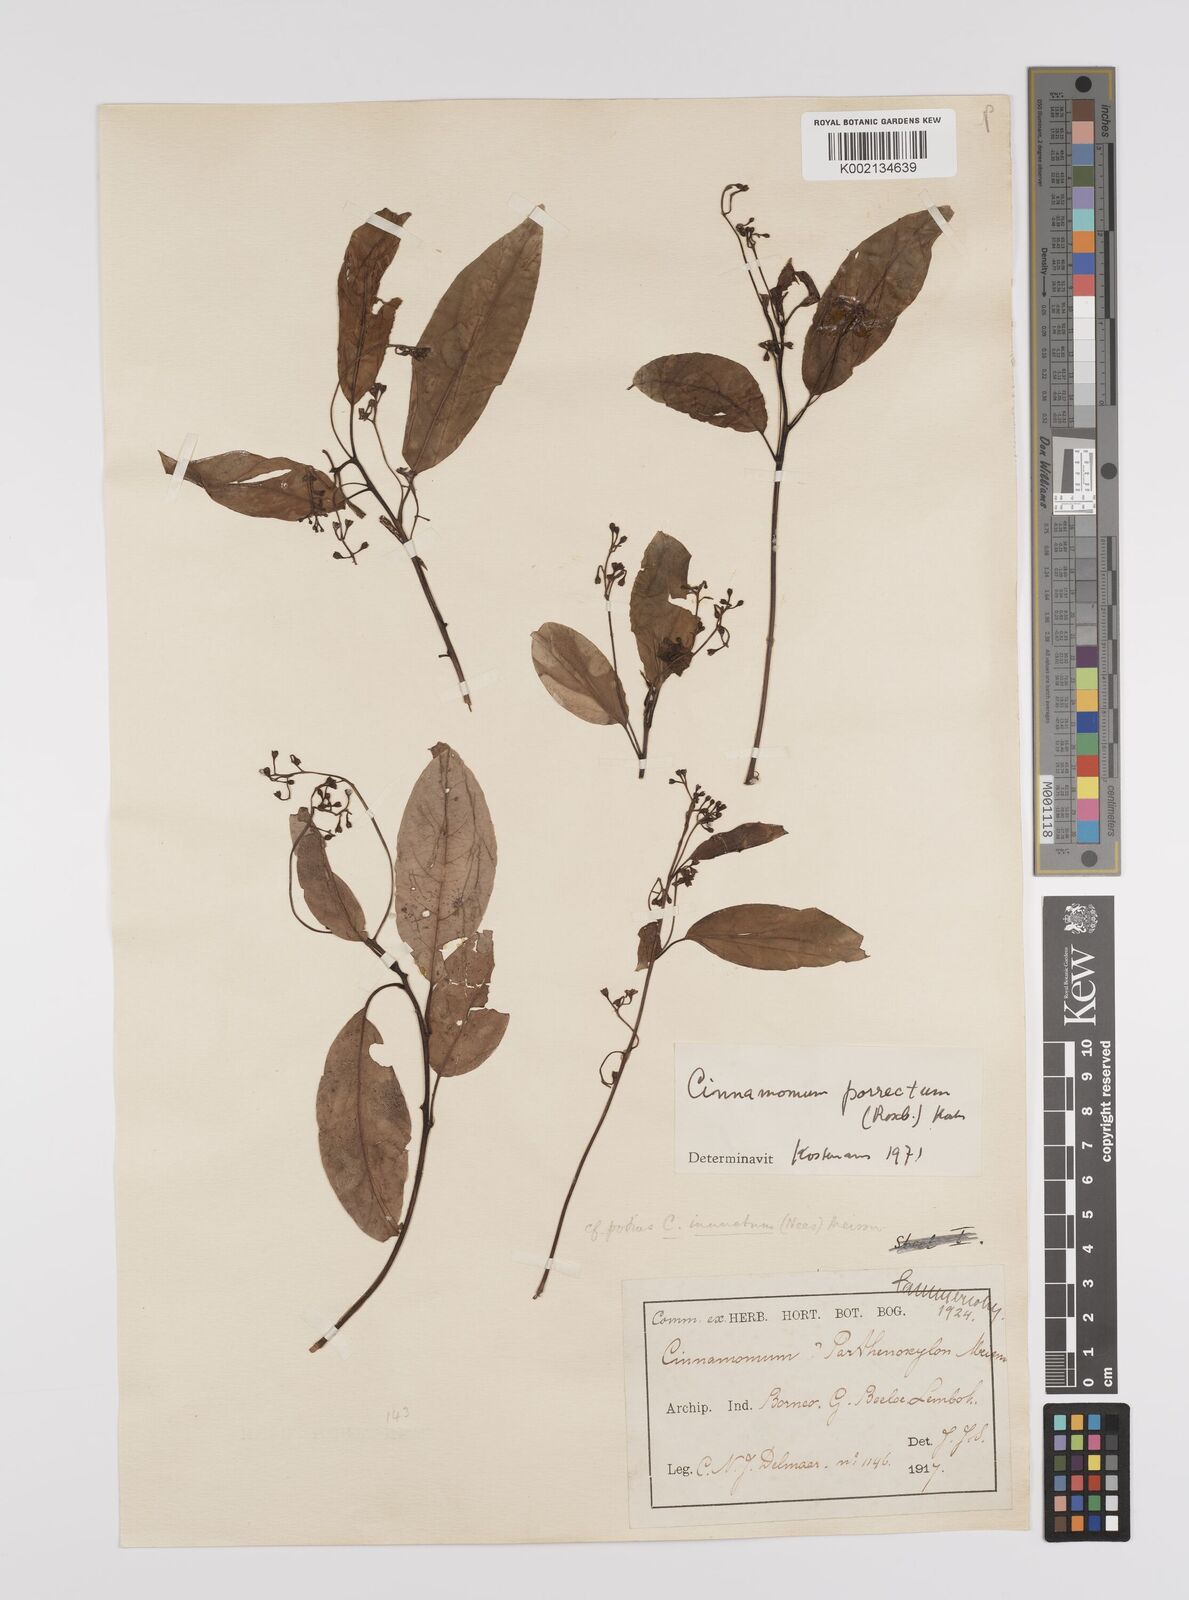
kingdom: Plantae
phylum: Tracheophyta
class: Magnoliopsida
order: Laurales
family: Lauraceae
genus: Cinnamomum
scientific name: Cinnamomum parthenoxylon
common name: Martaban camphor wood
